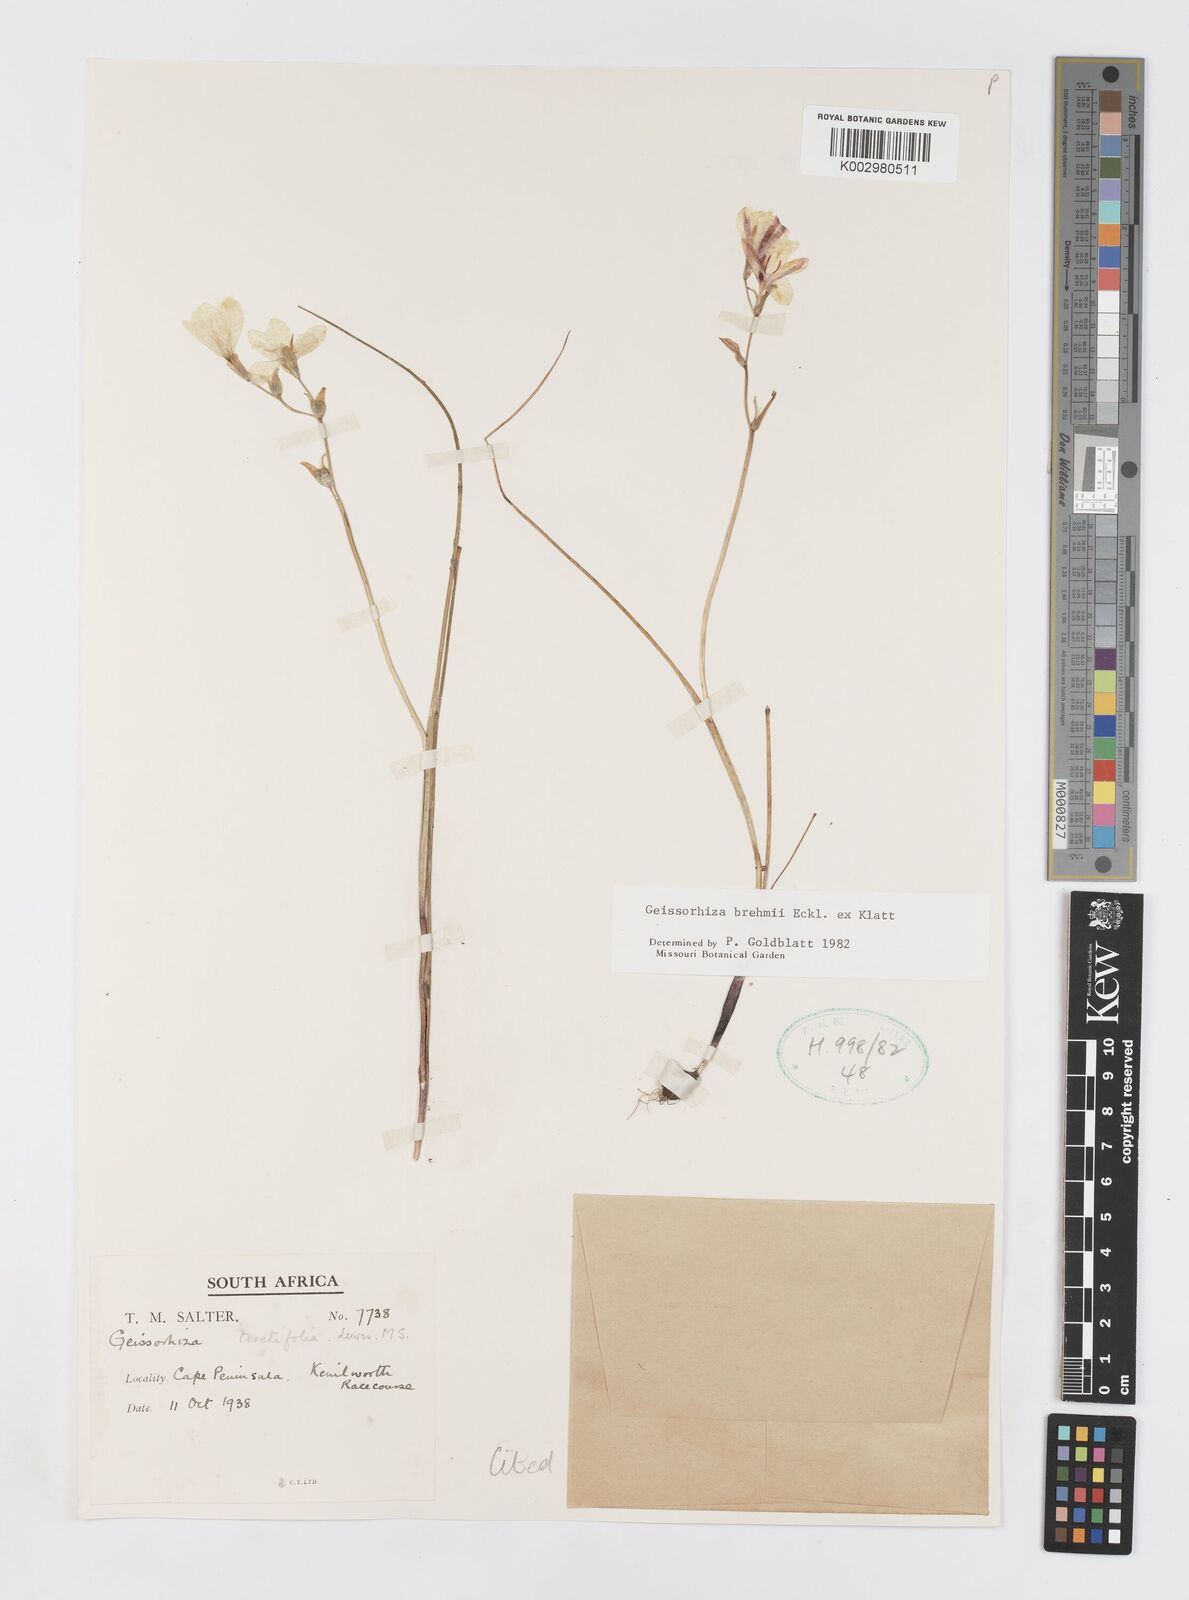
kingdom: Plantae
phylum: Tracheophyta
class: Liliopsida
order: Asparagales
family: Iridaceae
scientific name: Iridaceae
